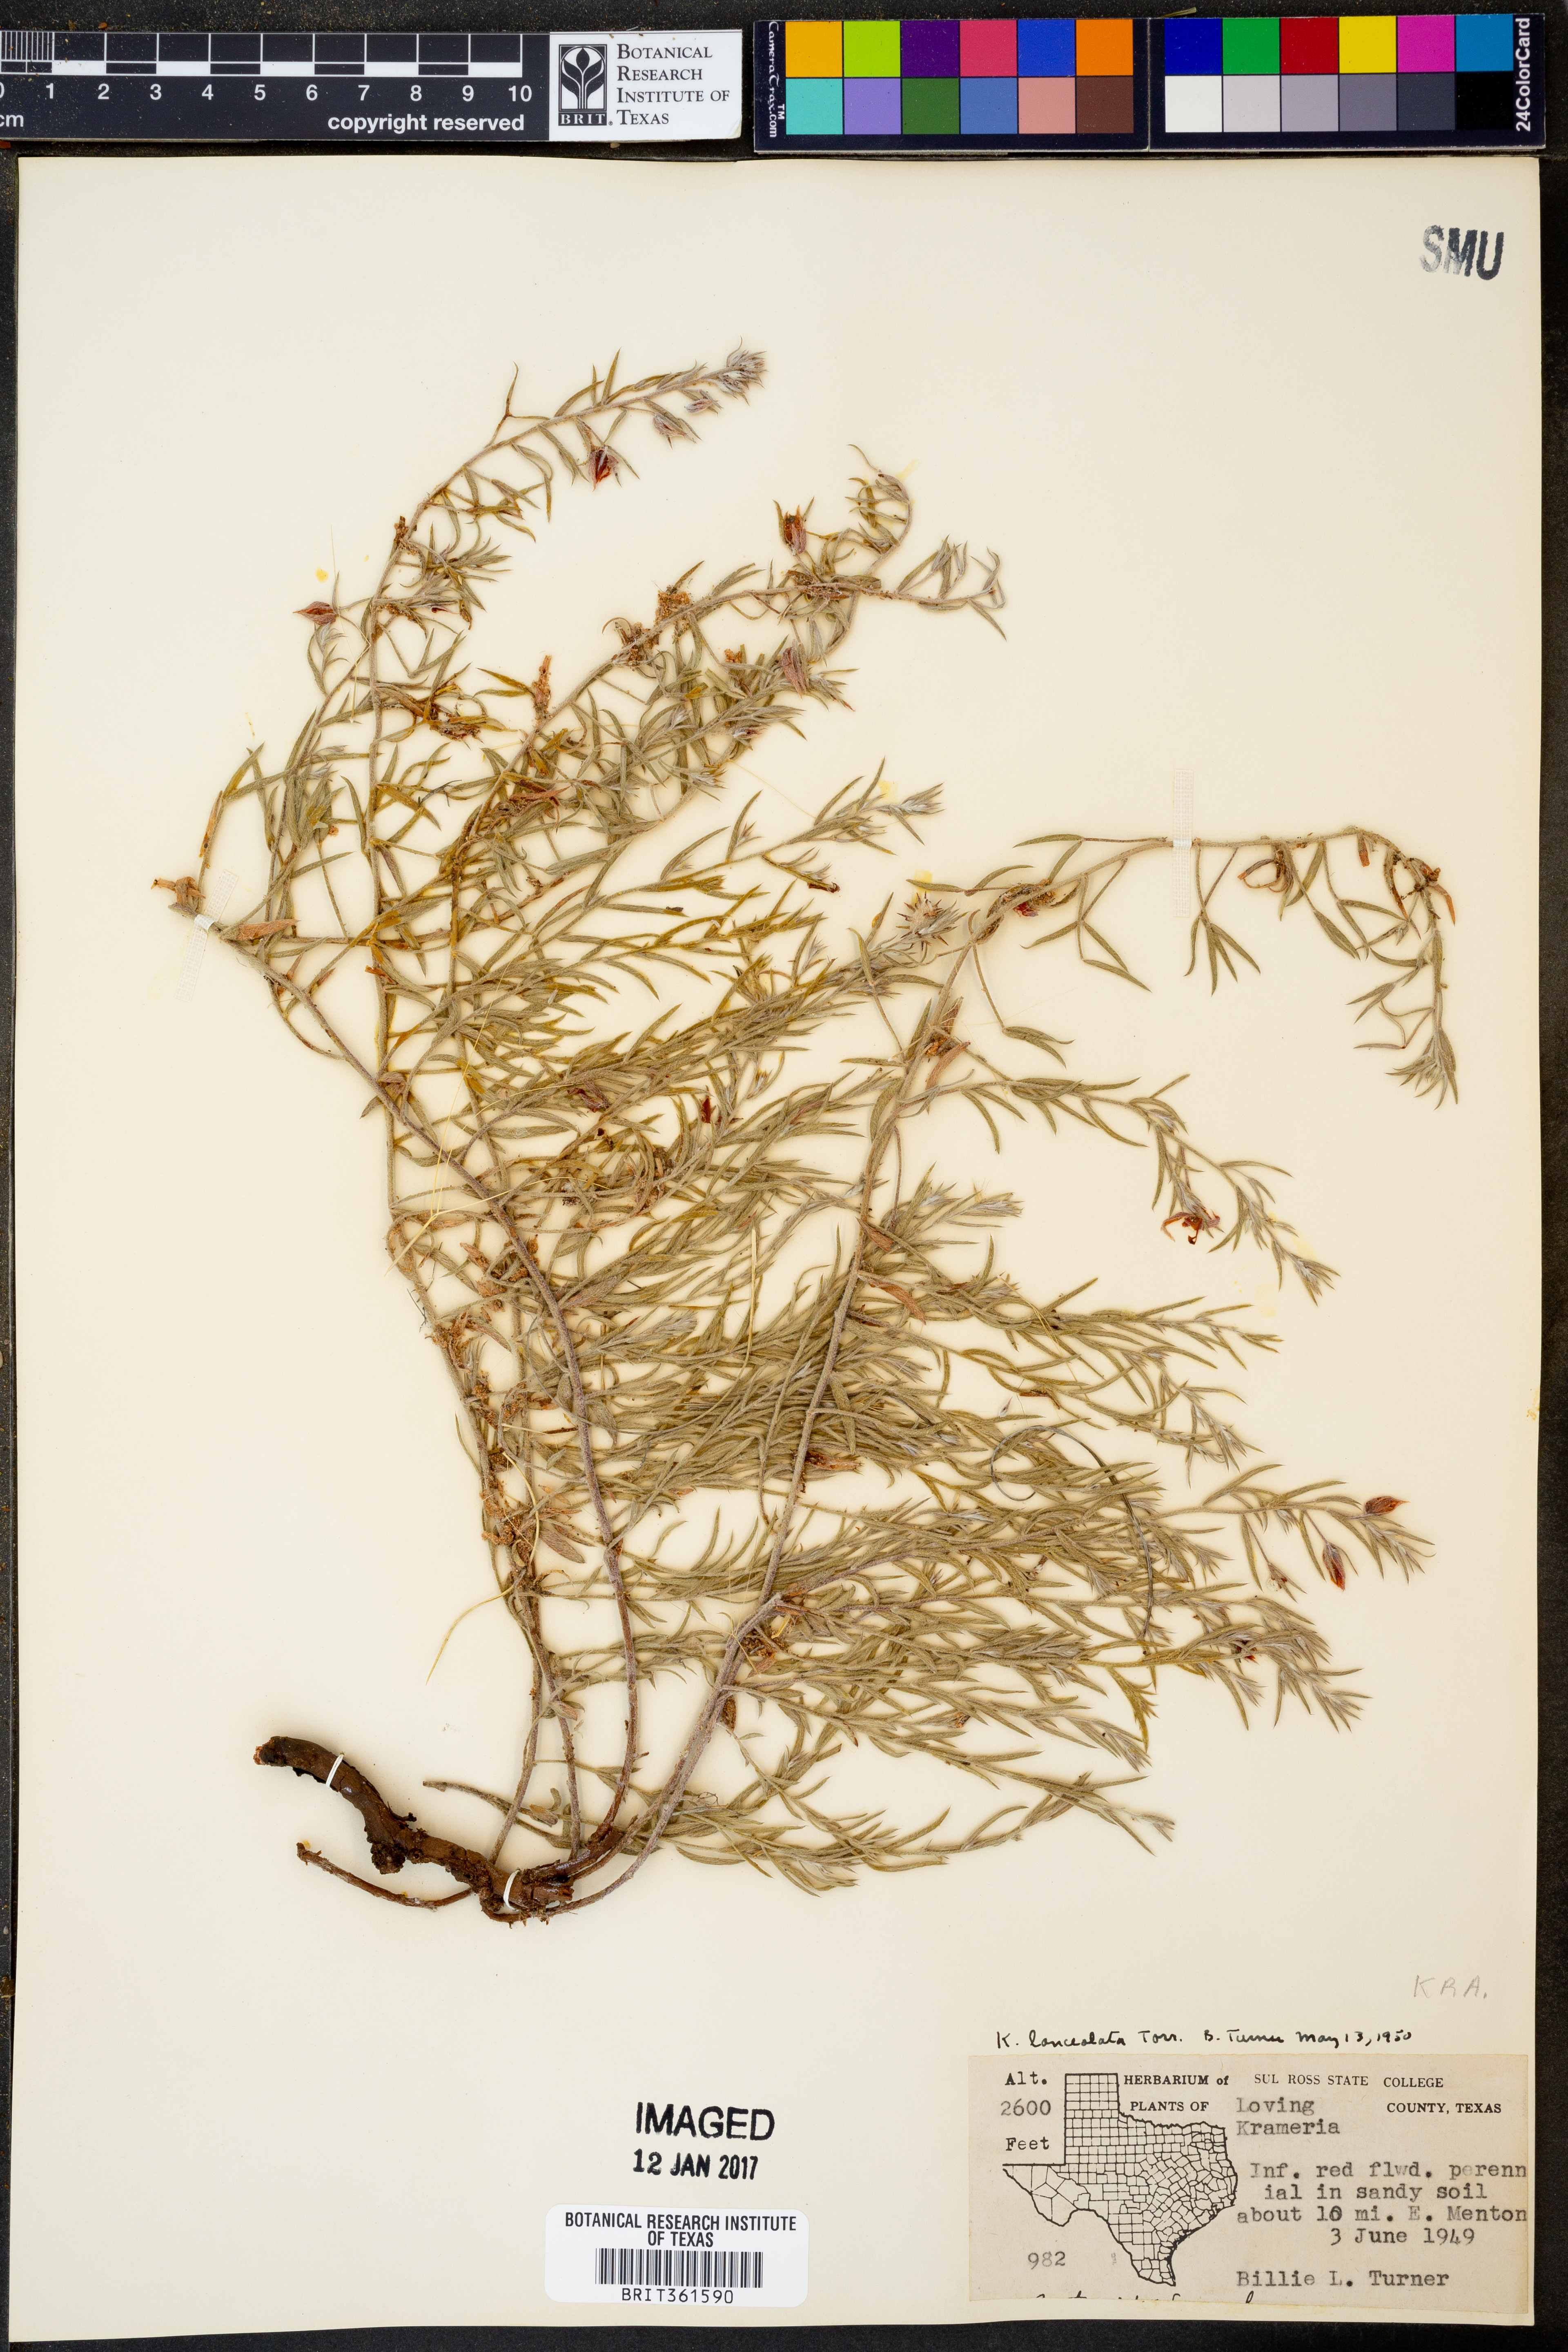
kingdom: Plantae
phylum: Tracheophyta
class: Magnoliopsida
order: Zygophyllales
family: Krameriaceae
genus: Krameria
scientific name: Krameria lanceolata
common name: Ratany
